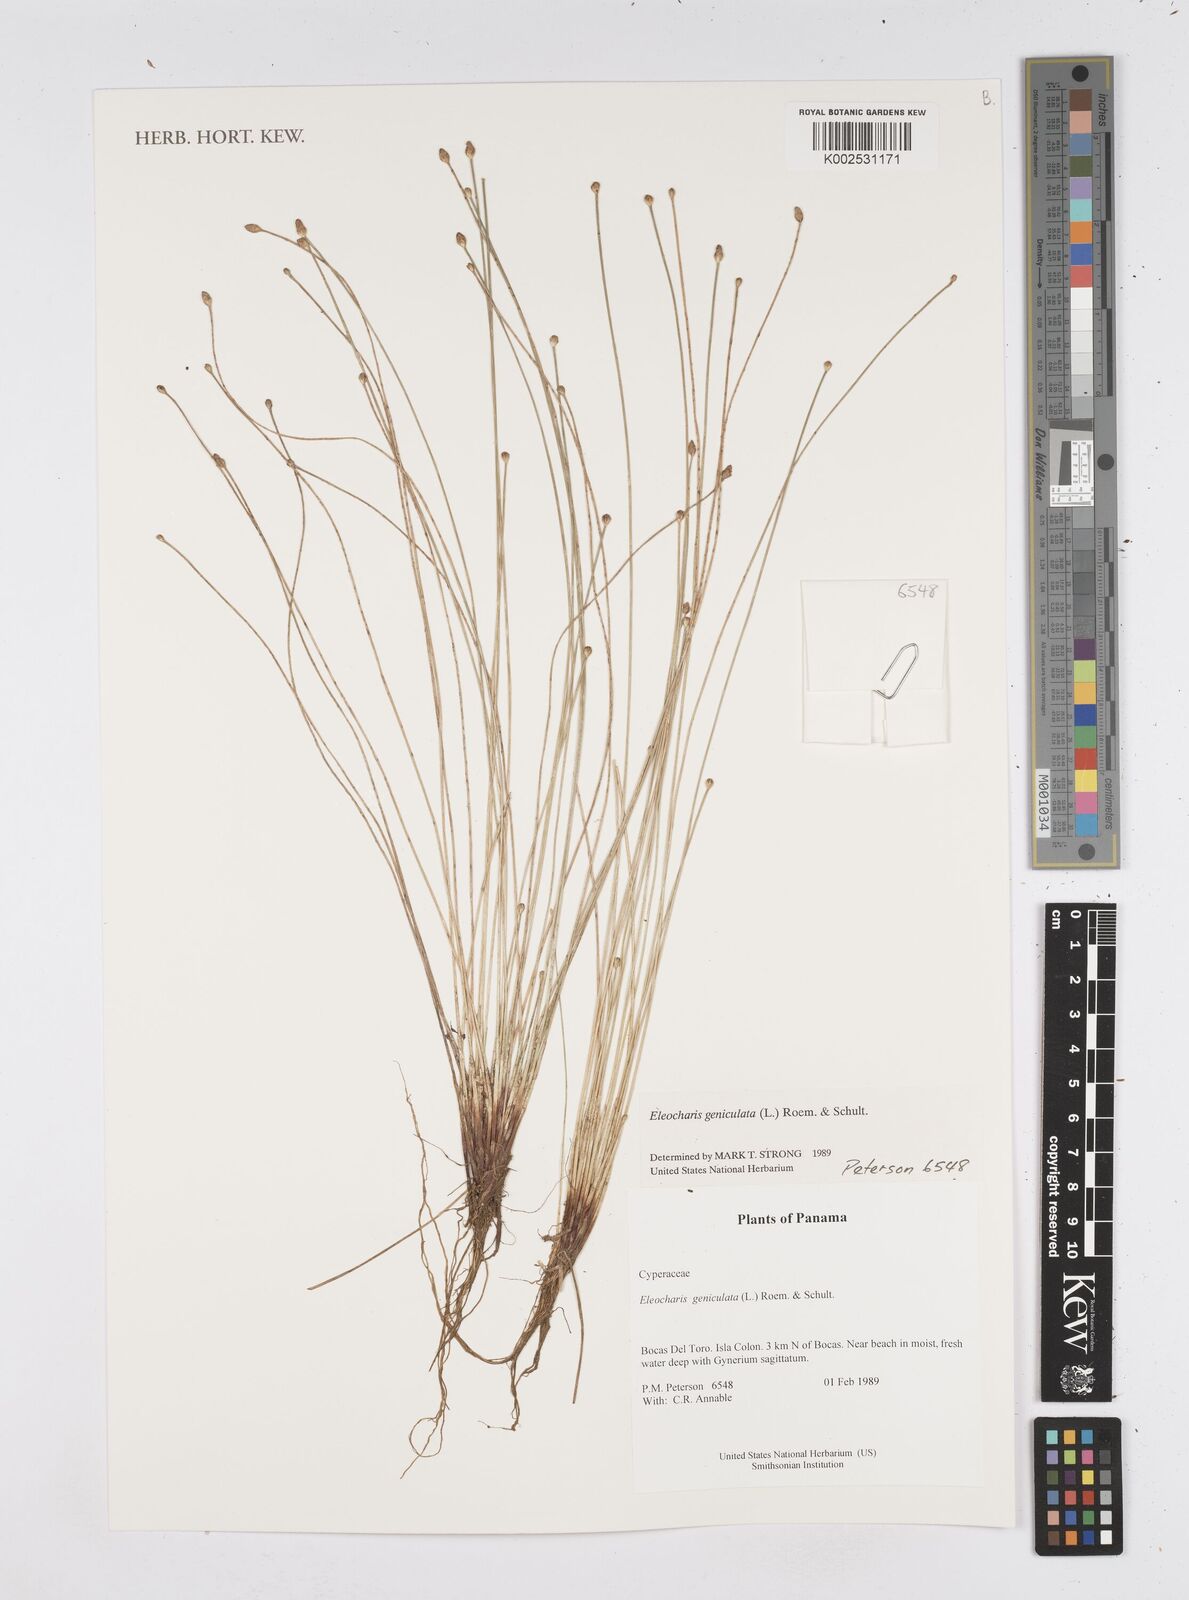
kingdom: Plantae
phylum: Tracheophyta
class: Liliopsida
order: Poales
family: Cyperaceae
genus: Eleocharis
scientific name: Eleocharis geniculata
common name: Canada spikesedge
